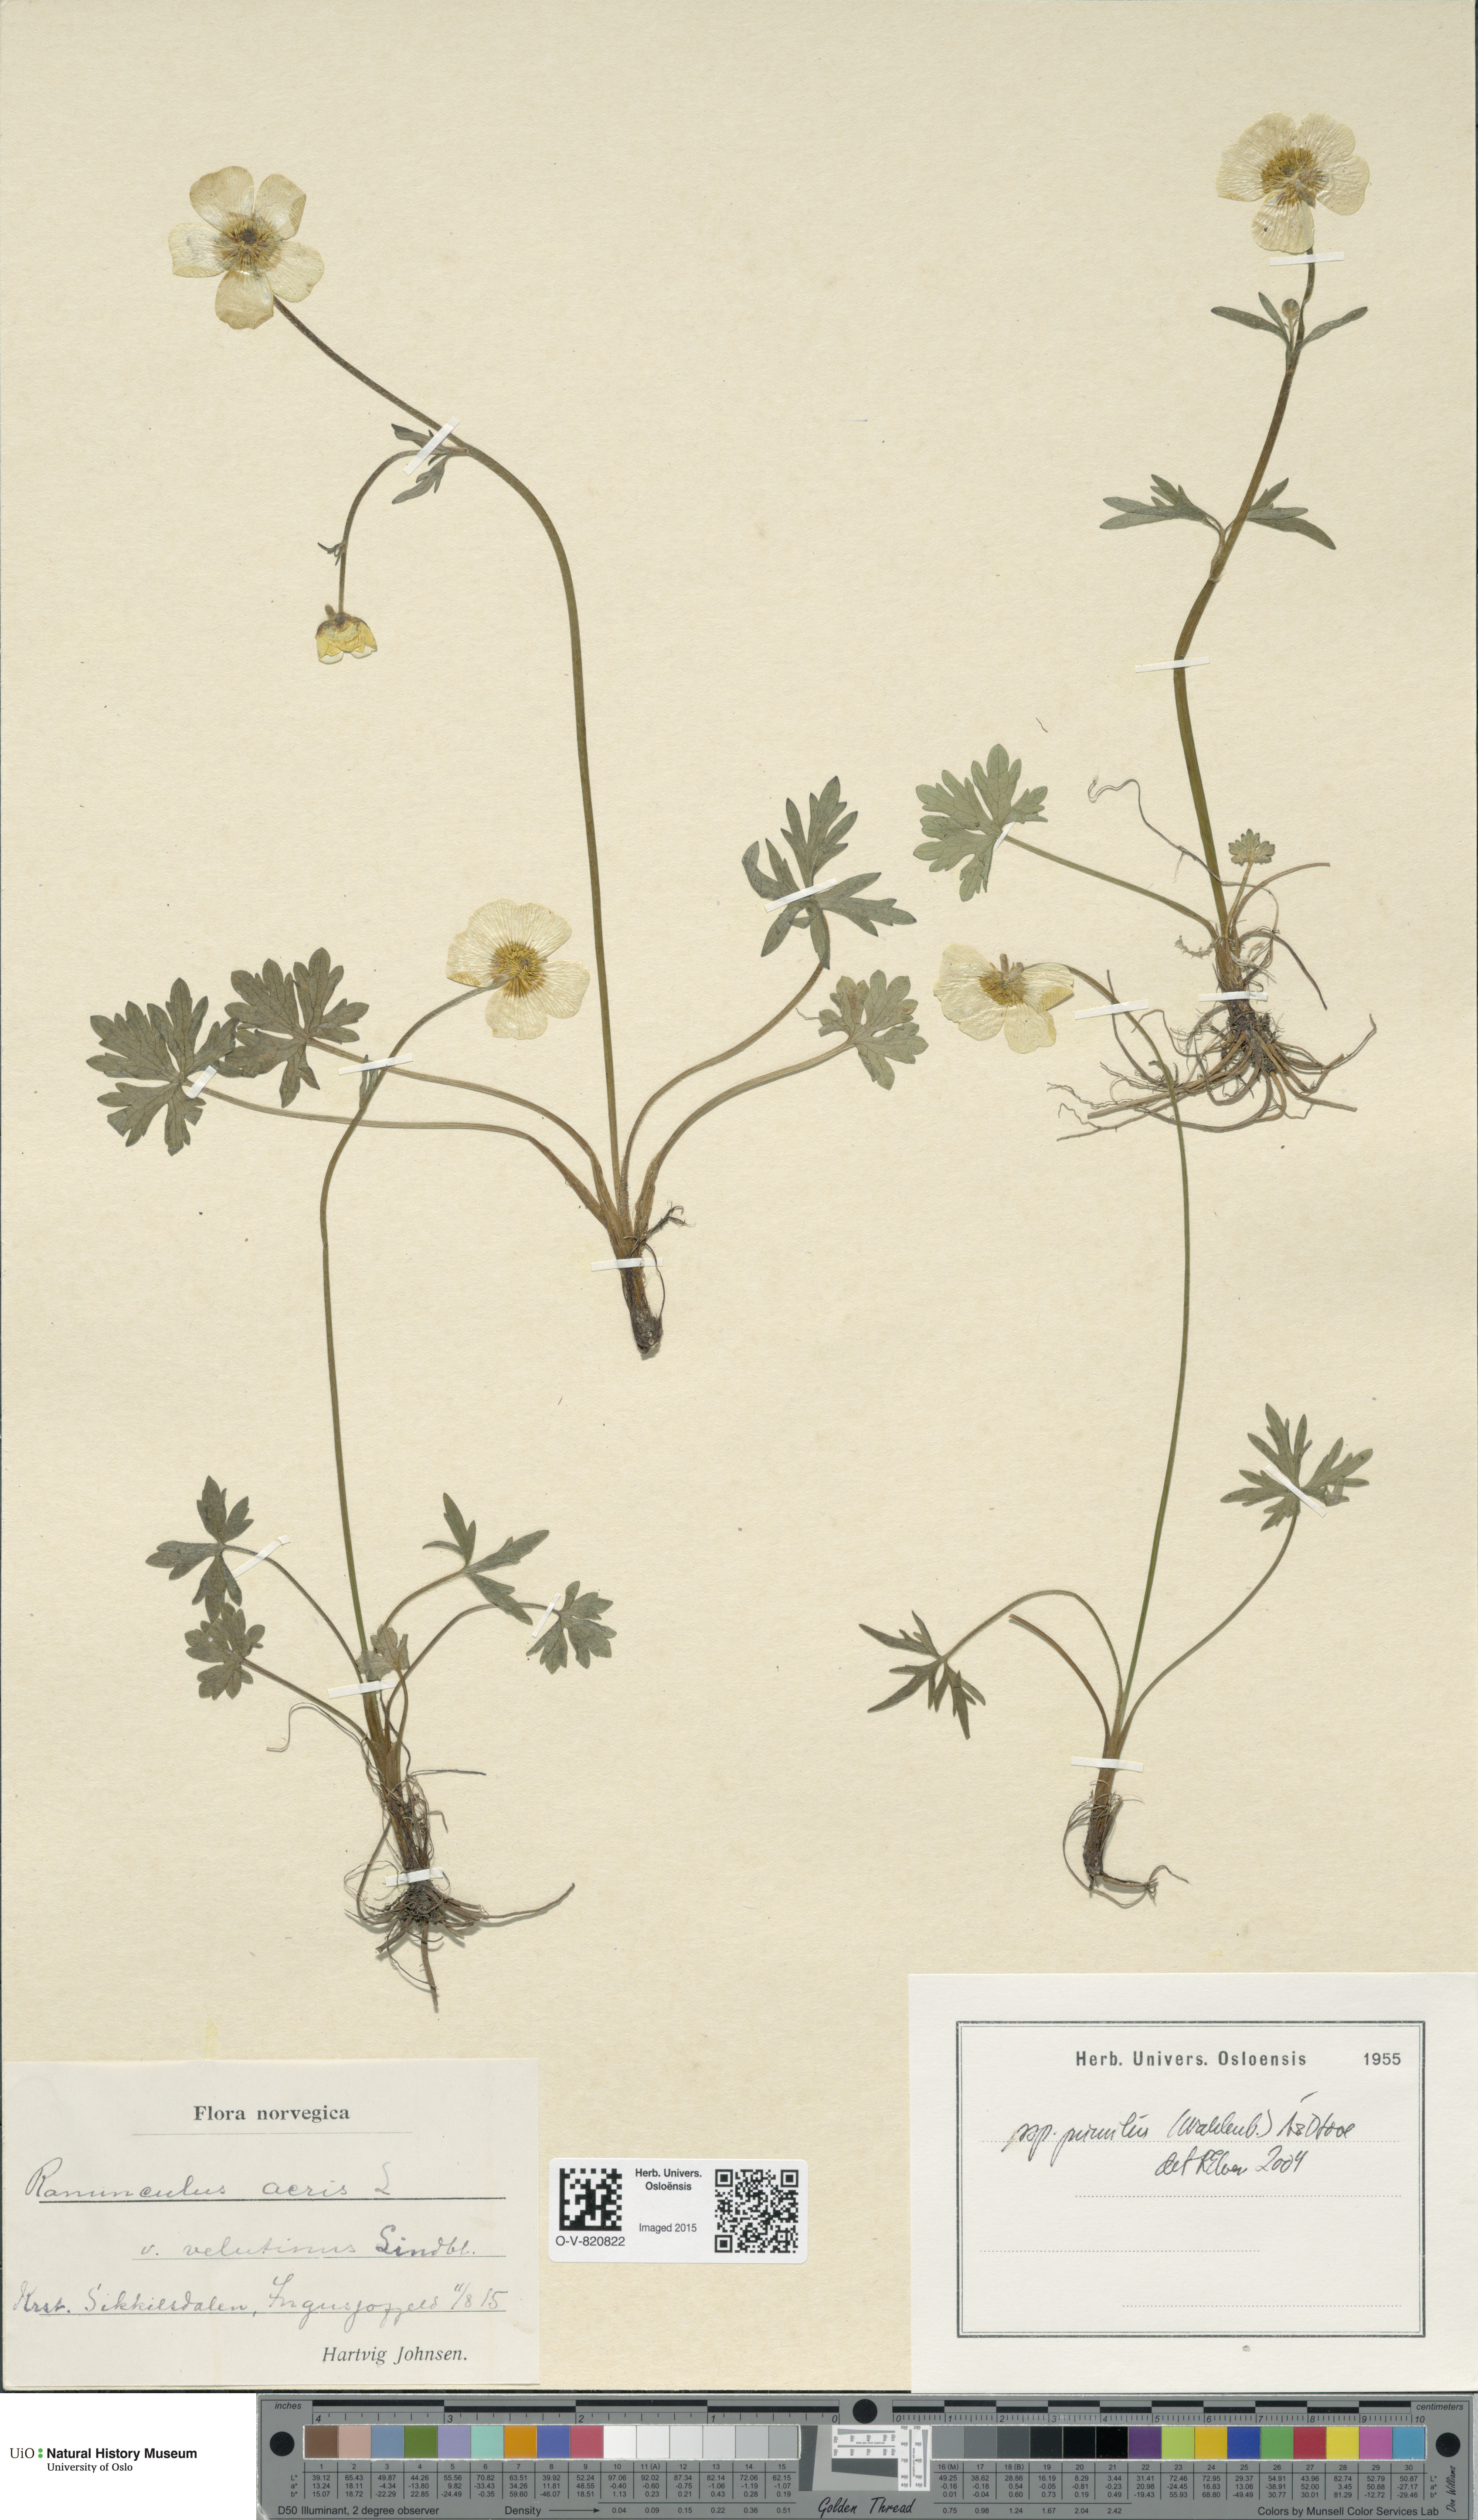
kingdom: Plantae
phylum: Tracheophyta
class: Magnoliopsida
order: Ranunculales
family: Ranunculaceae
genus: Ranunculus
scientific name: Ranunculus
